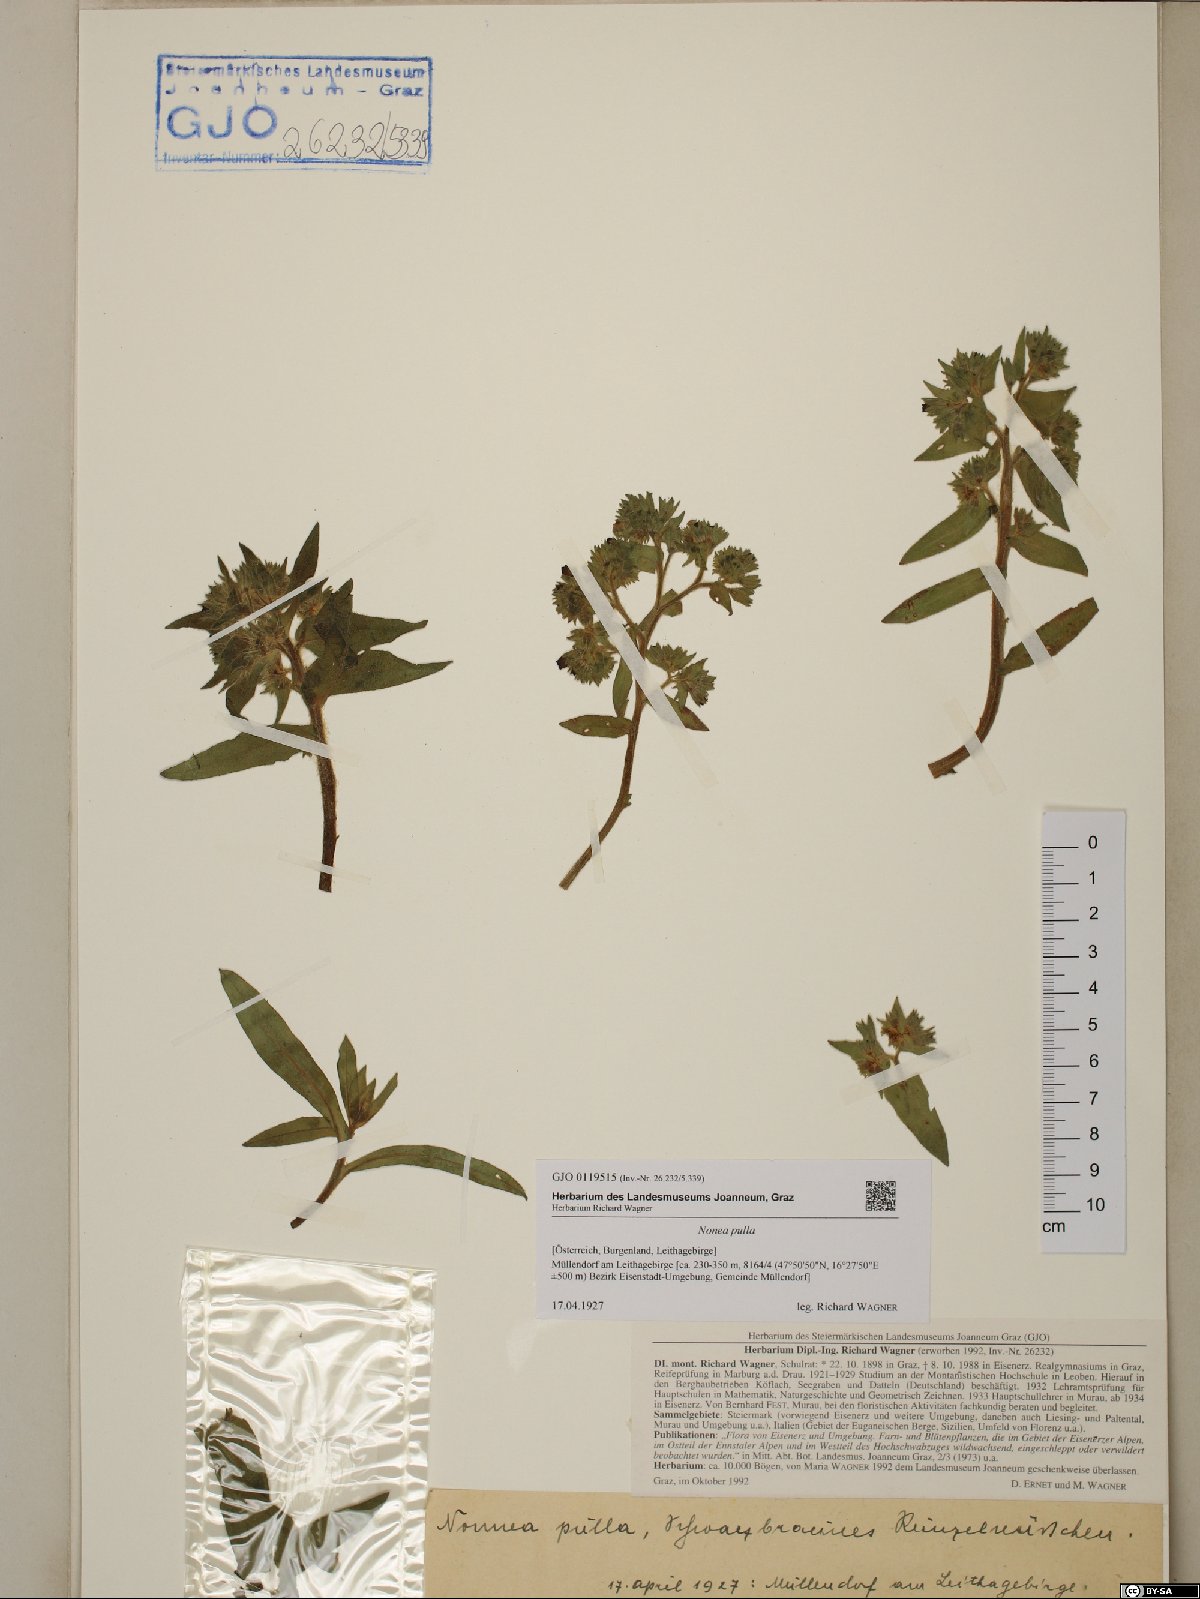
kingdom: Plantae
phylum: Tracheophyta
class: Magnoliopsida
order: Boraginales
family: Boraginaceae
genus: Nonea
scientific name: Nonea pulla
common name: Brown nonea
